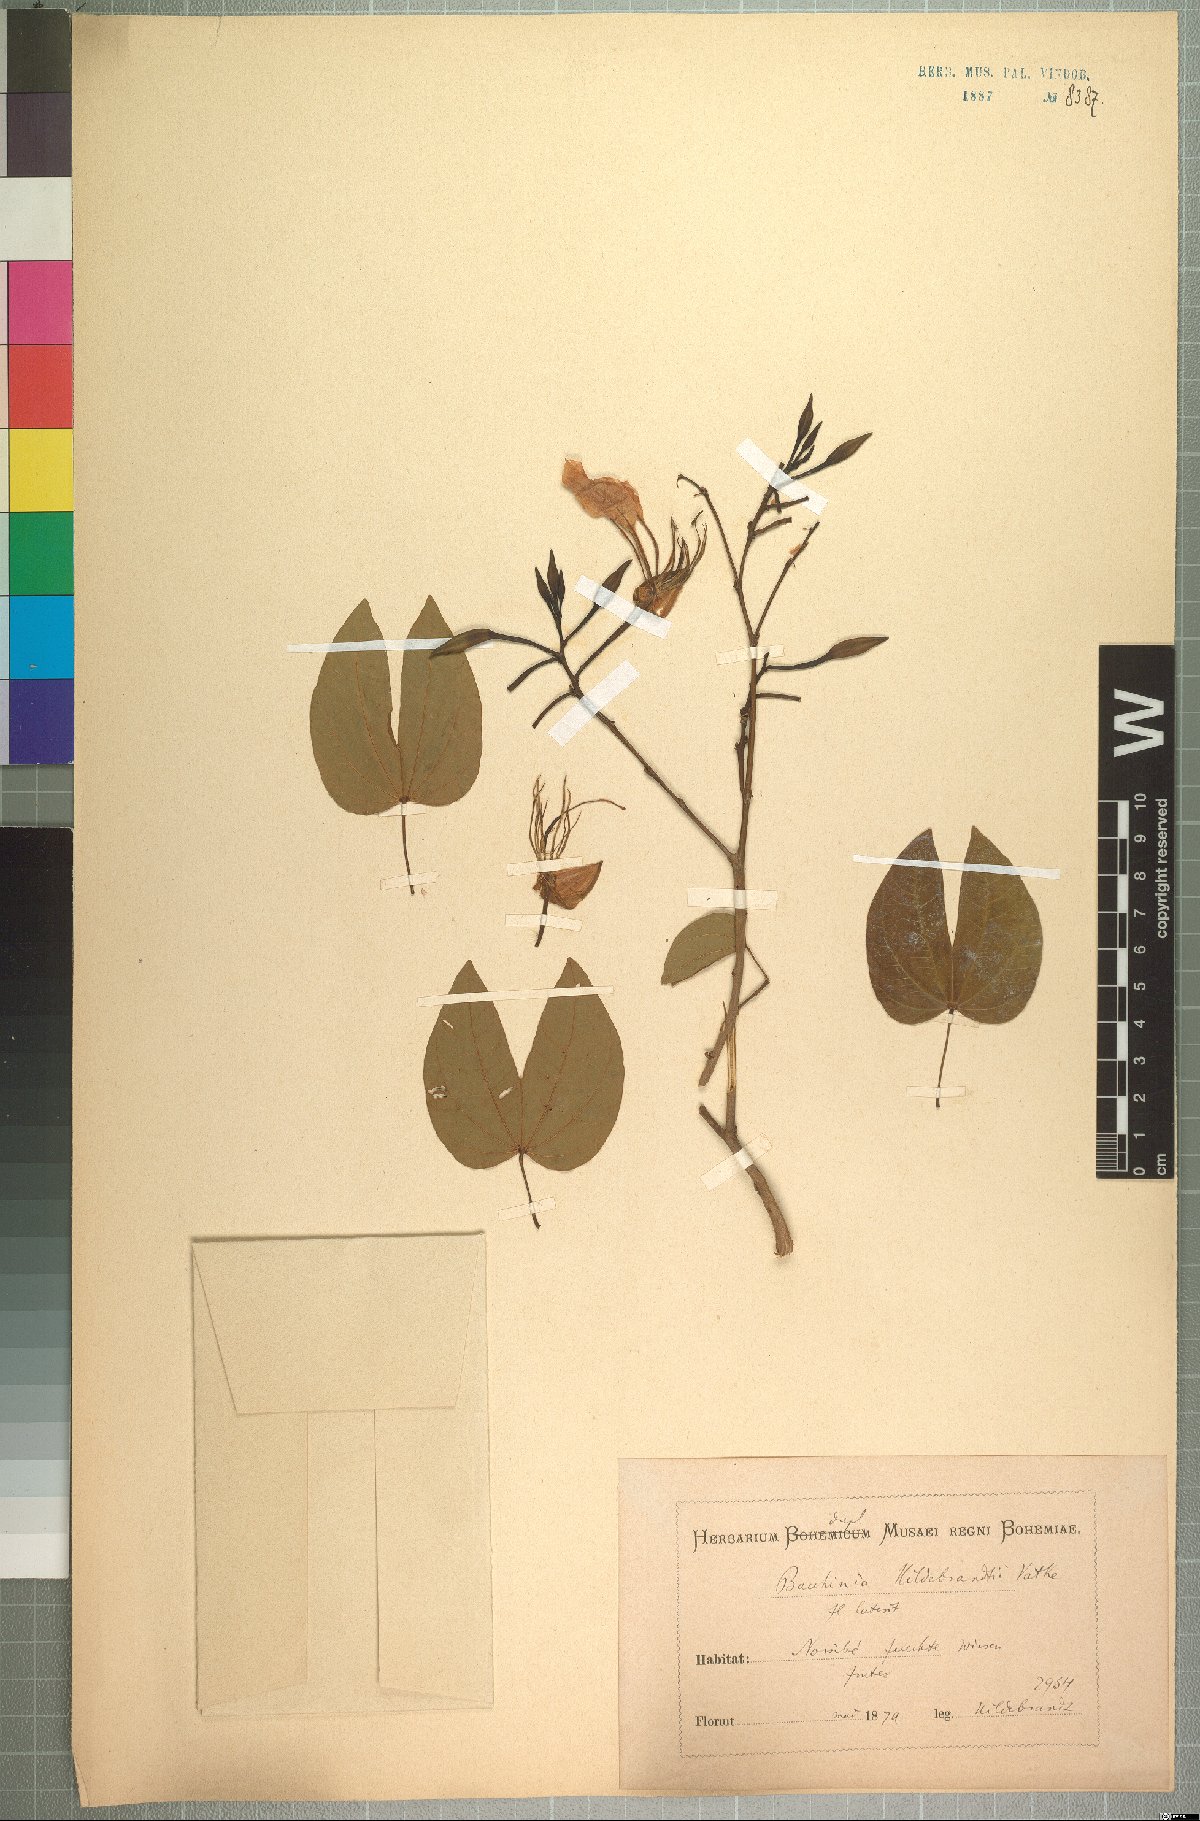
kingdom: Plantae
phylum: Tracheophyta
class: Magnoliopsida
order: Fabales
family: Fabaceae
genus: Bauhinia
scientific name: Bauhinia hildebrandtii
